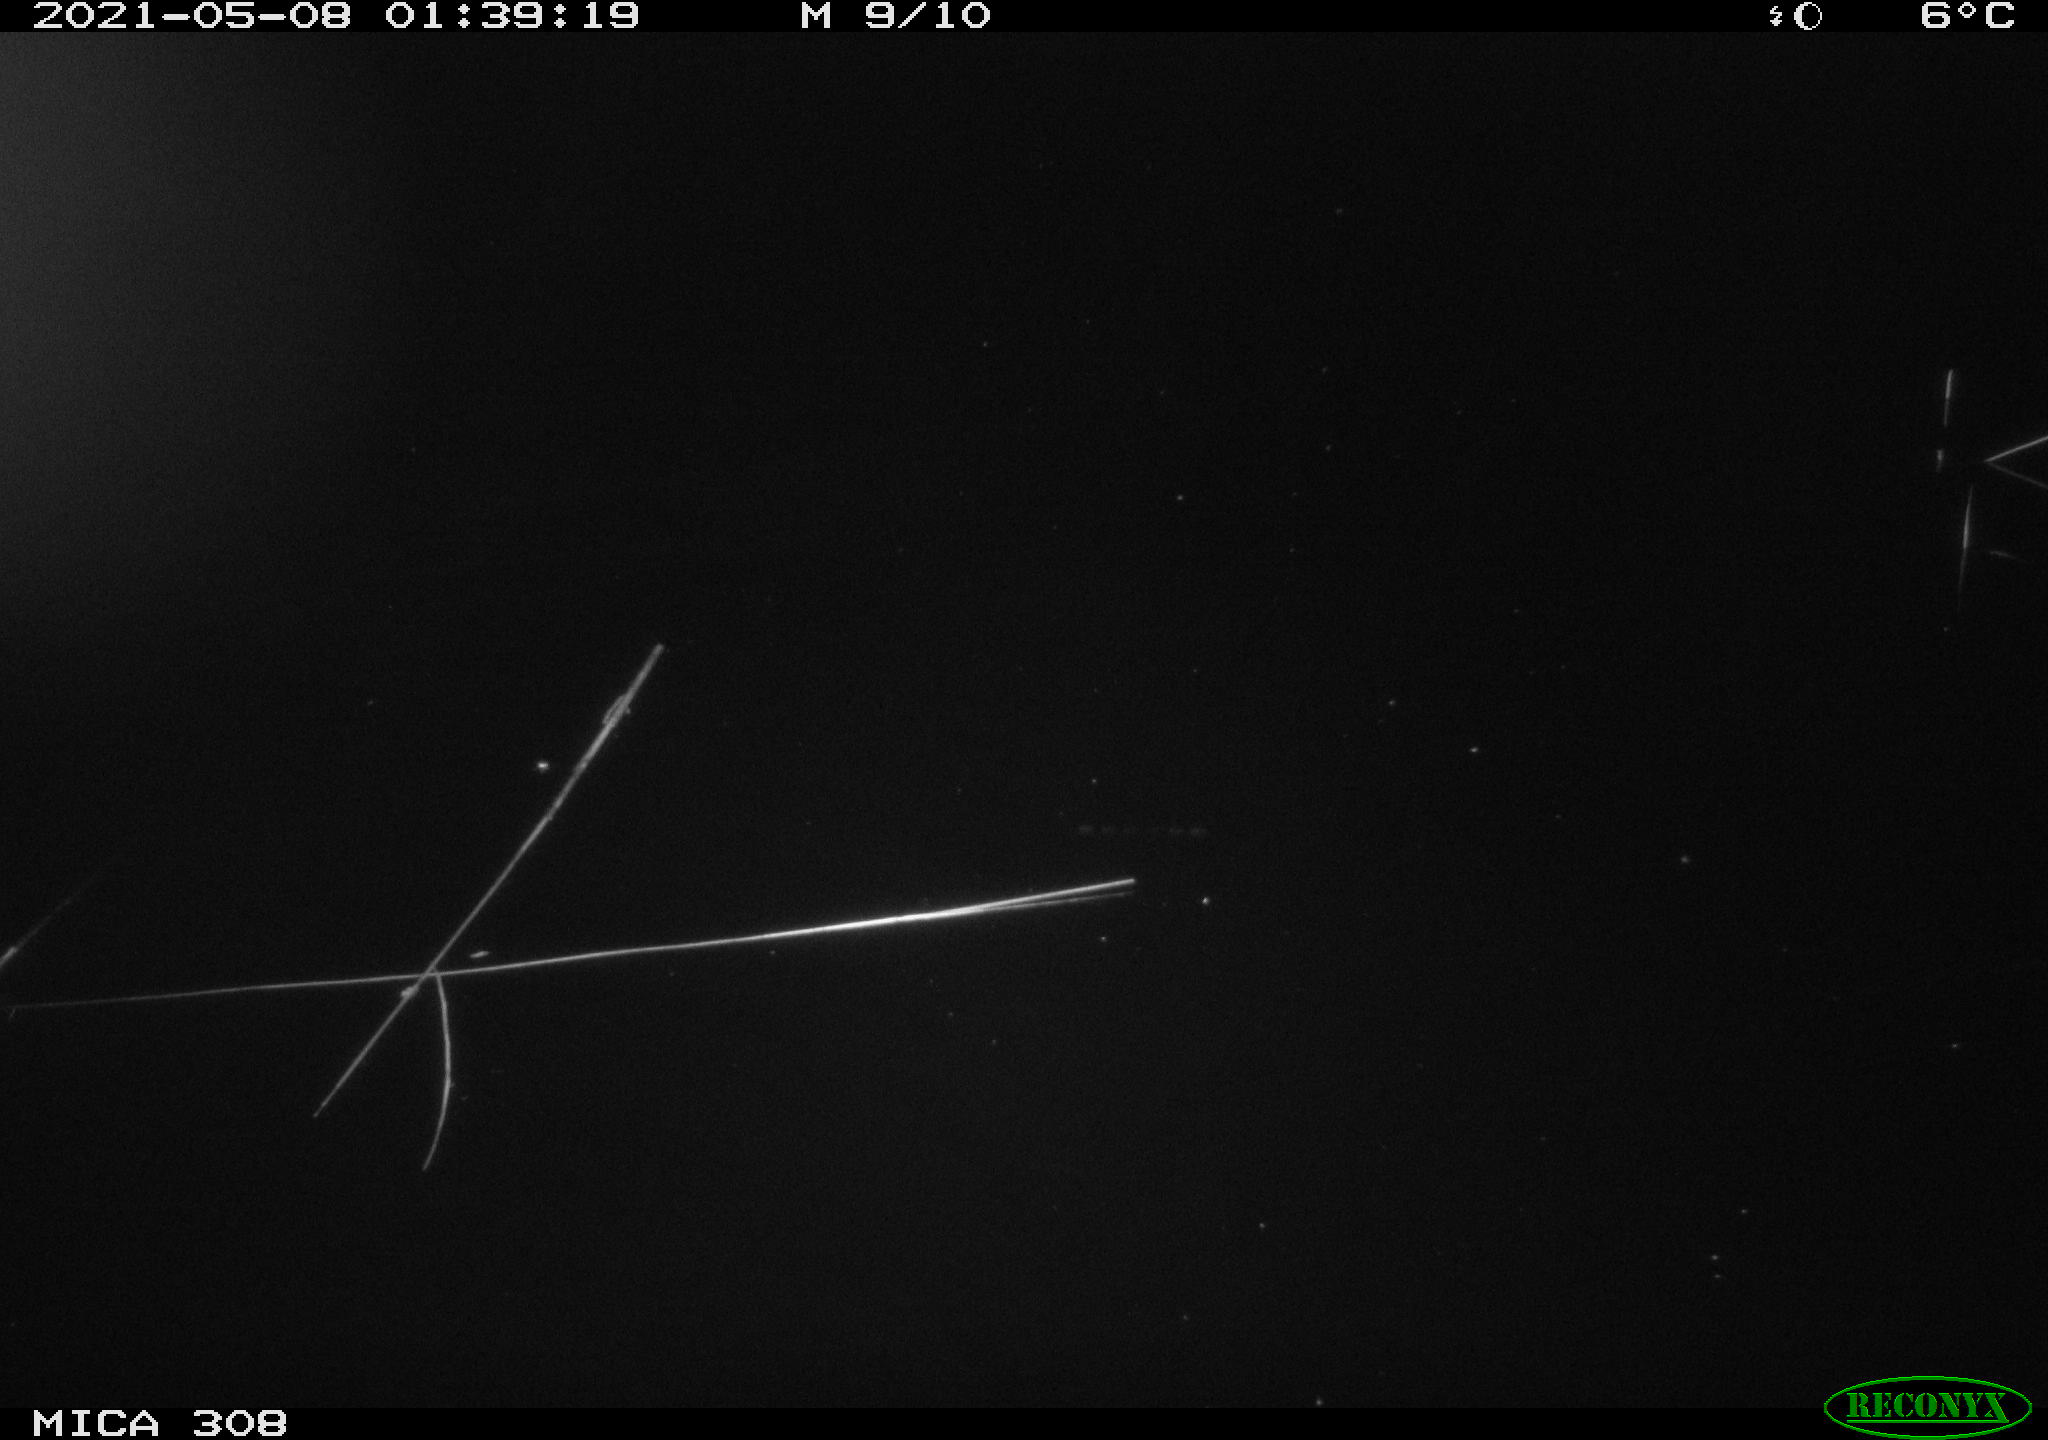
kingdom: Animalia
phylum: Chordata
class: Mammalia
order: Rodentia
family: Cricetidae
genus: Ondatra
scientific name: Ondatra zibethicus
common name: Muskrat
